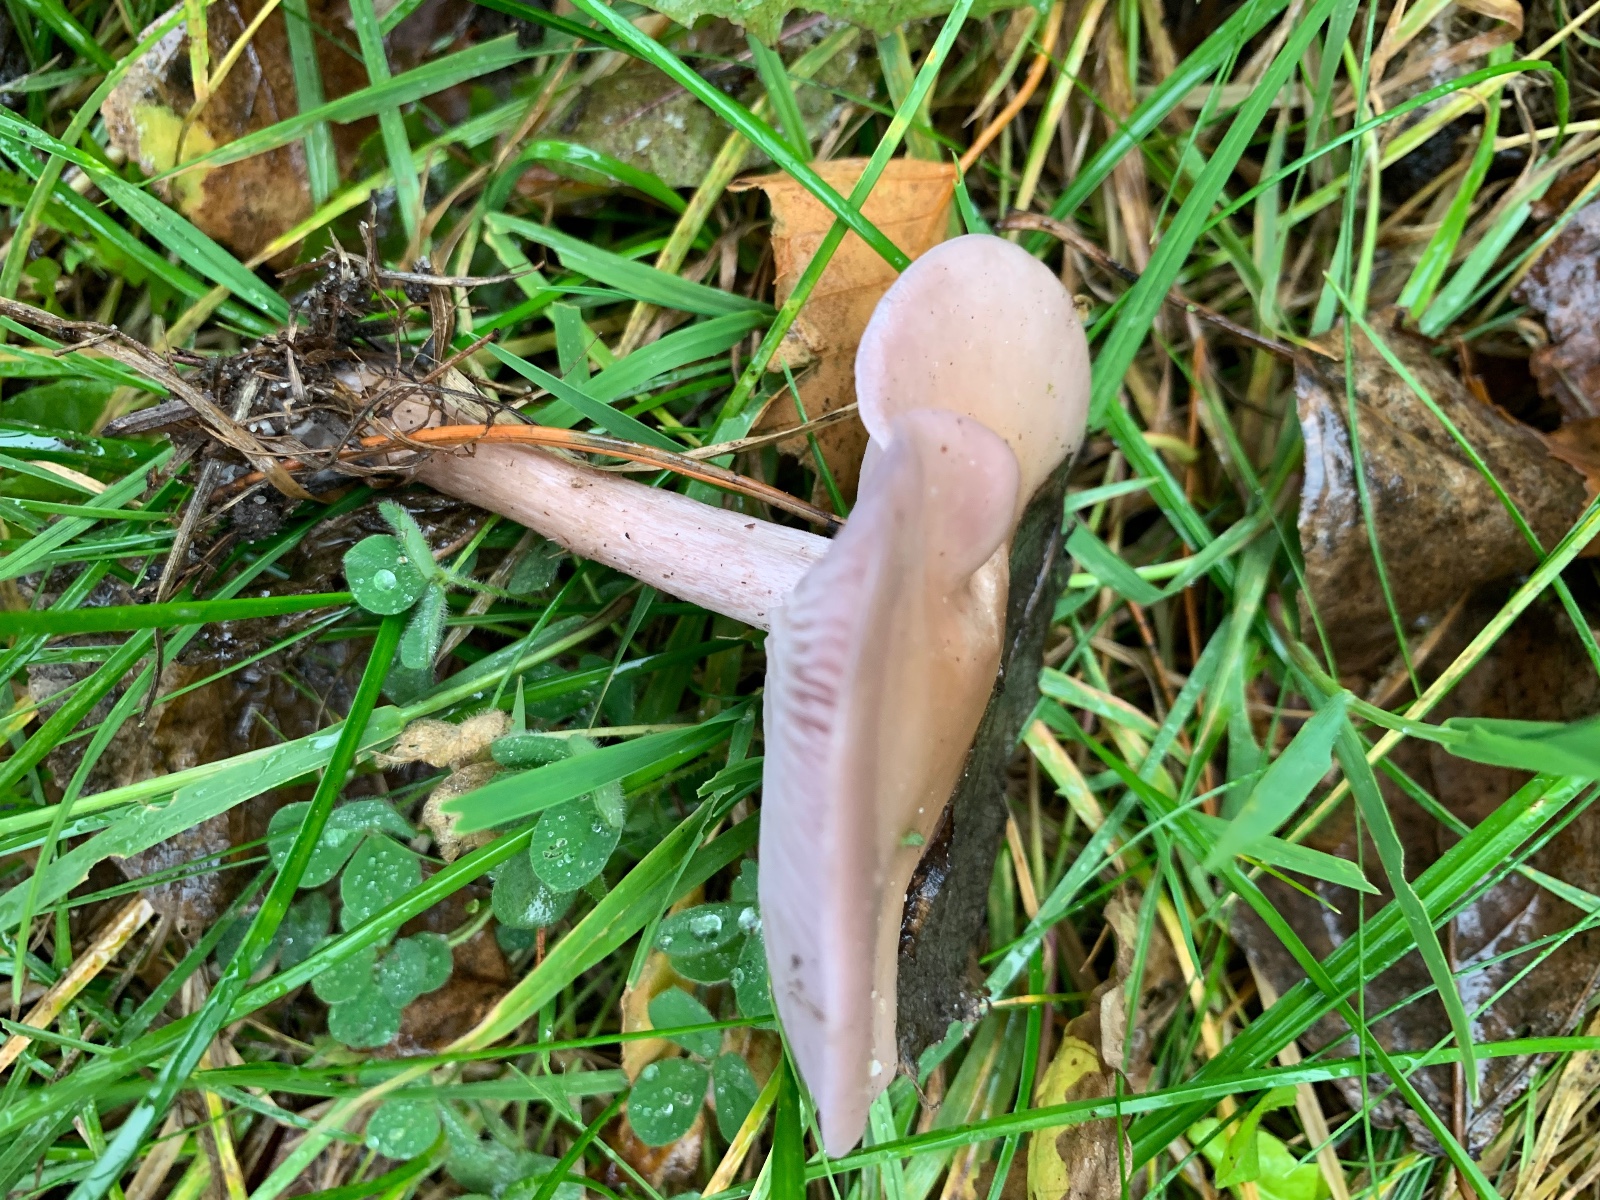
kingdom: Fungi
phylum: Basidiomycota
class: Agaricomycetes
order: Agaricales
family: Tricholomataceae
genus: Lepista
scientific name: Lepista nuda
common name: violet hekseringshat
